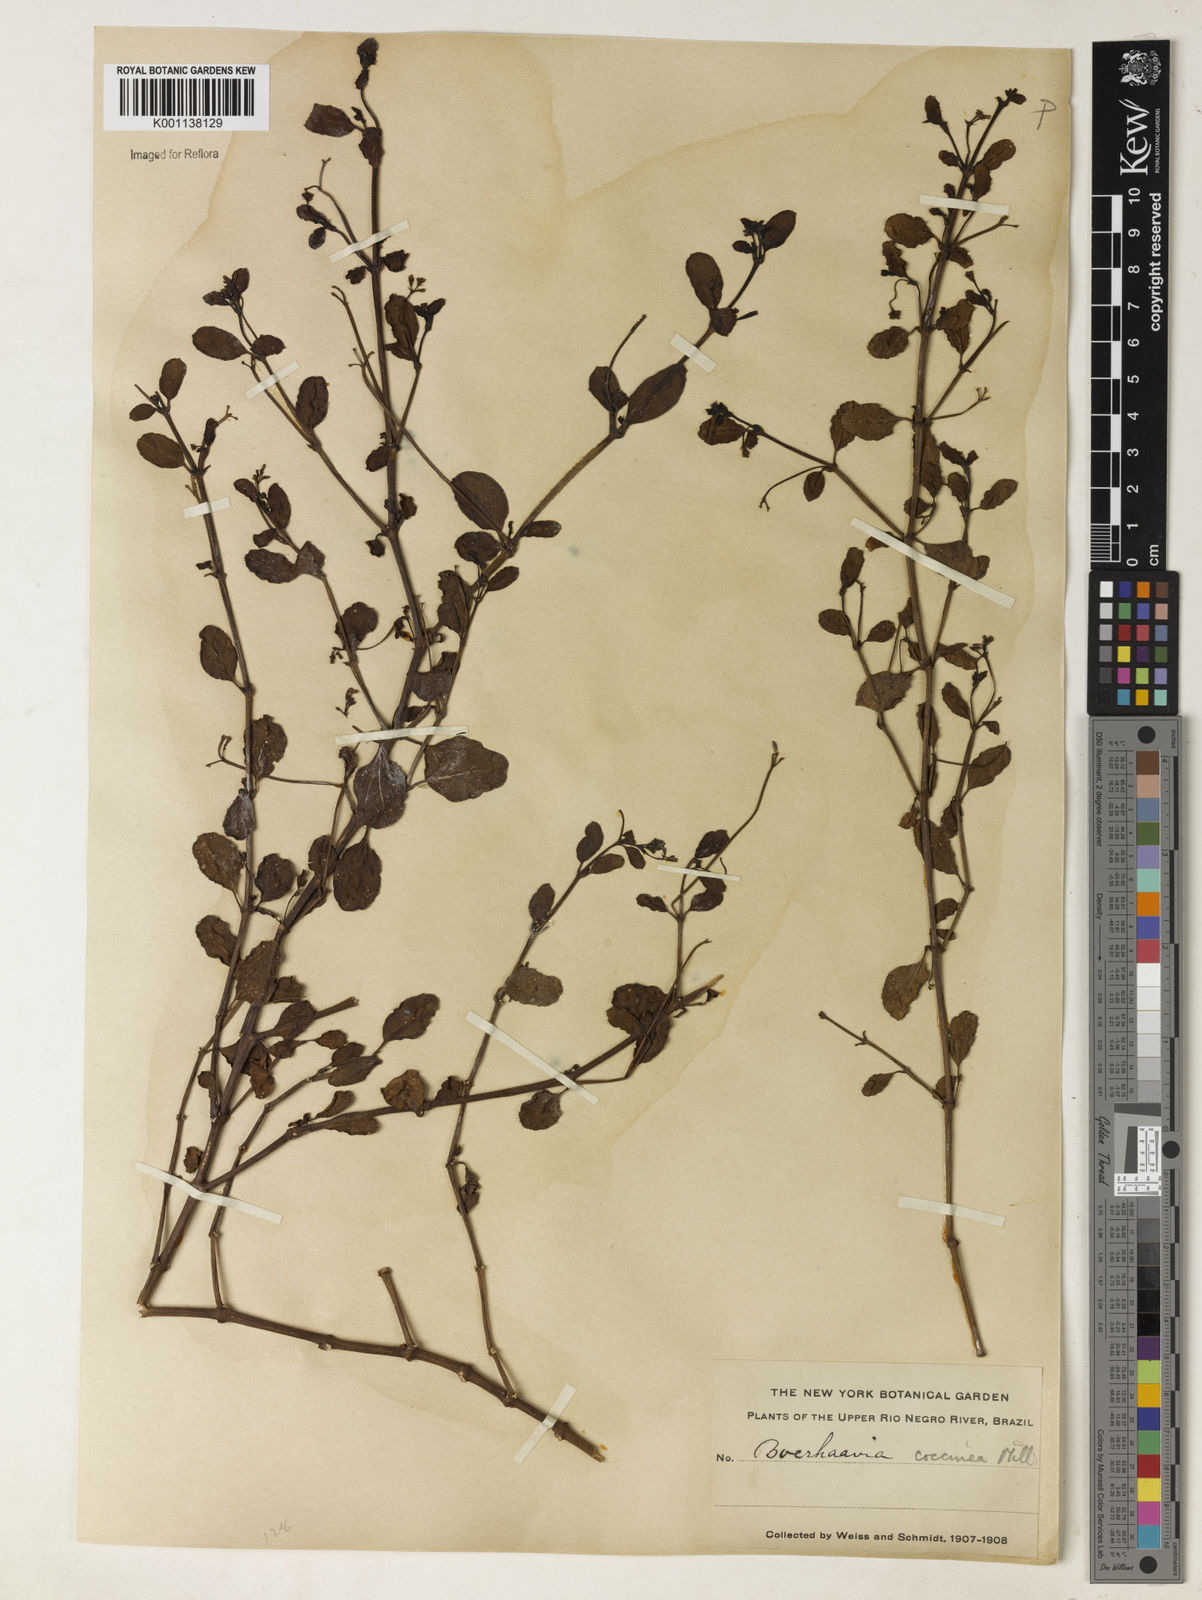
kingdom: Plantae
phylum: Tracheophyta
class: Magnoliopsida
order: Caryophyllales
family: Nyctaginaceae
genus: Boerhavia
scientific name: Boerhavia diffusa
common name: Red spiderling
